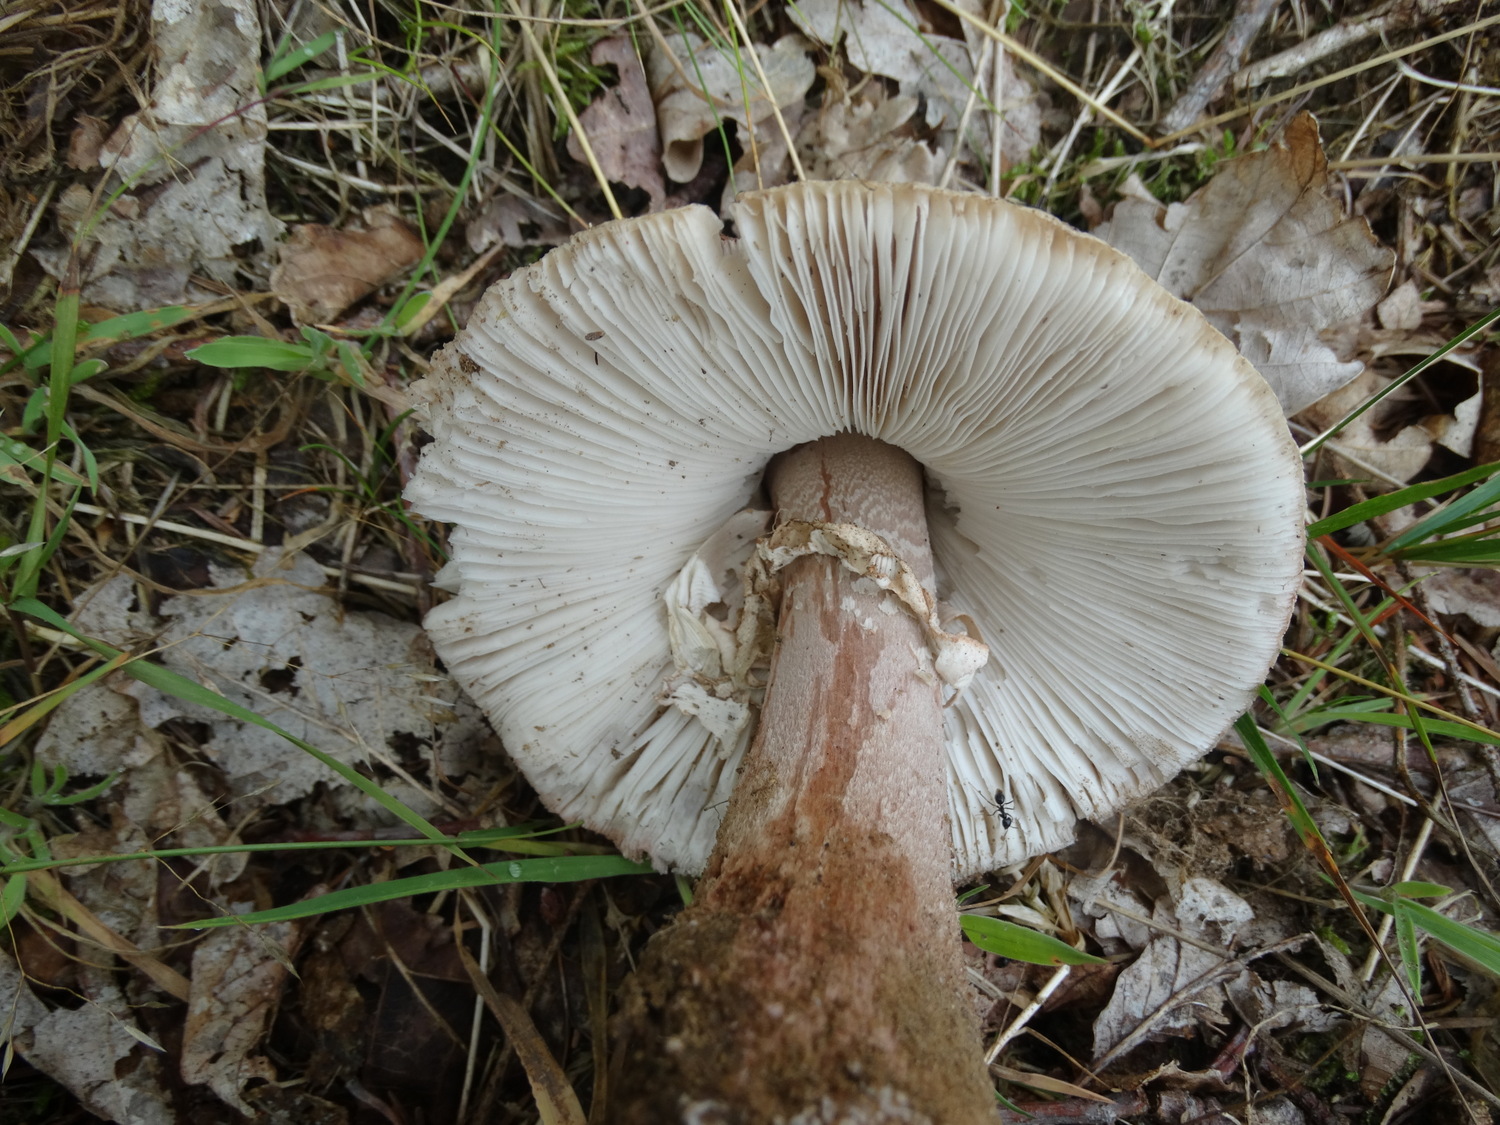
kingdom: Fungi
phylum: Basidiomycota
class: Agaricomycetes
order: Agaricales
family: Amanitaceae
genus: Amanita
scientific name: Amanita rubescens
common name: rødmende fluesvamp
